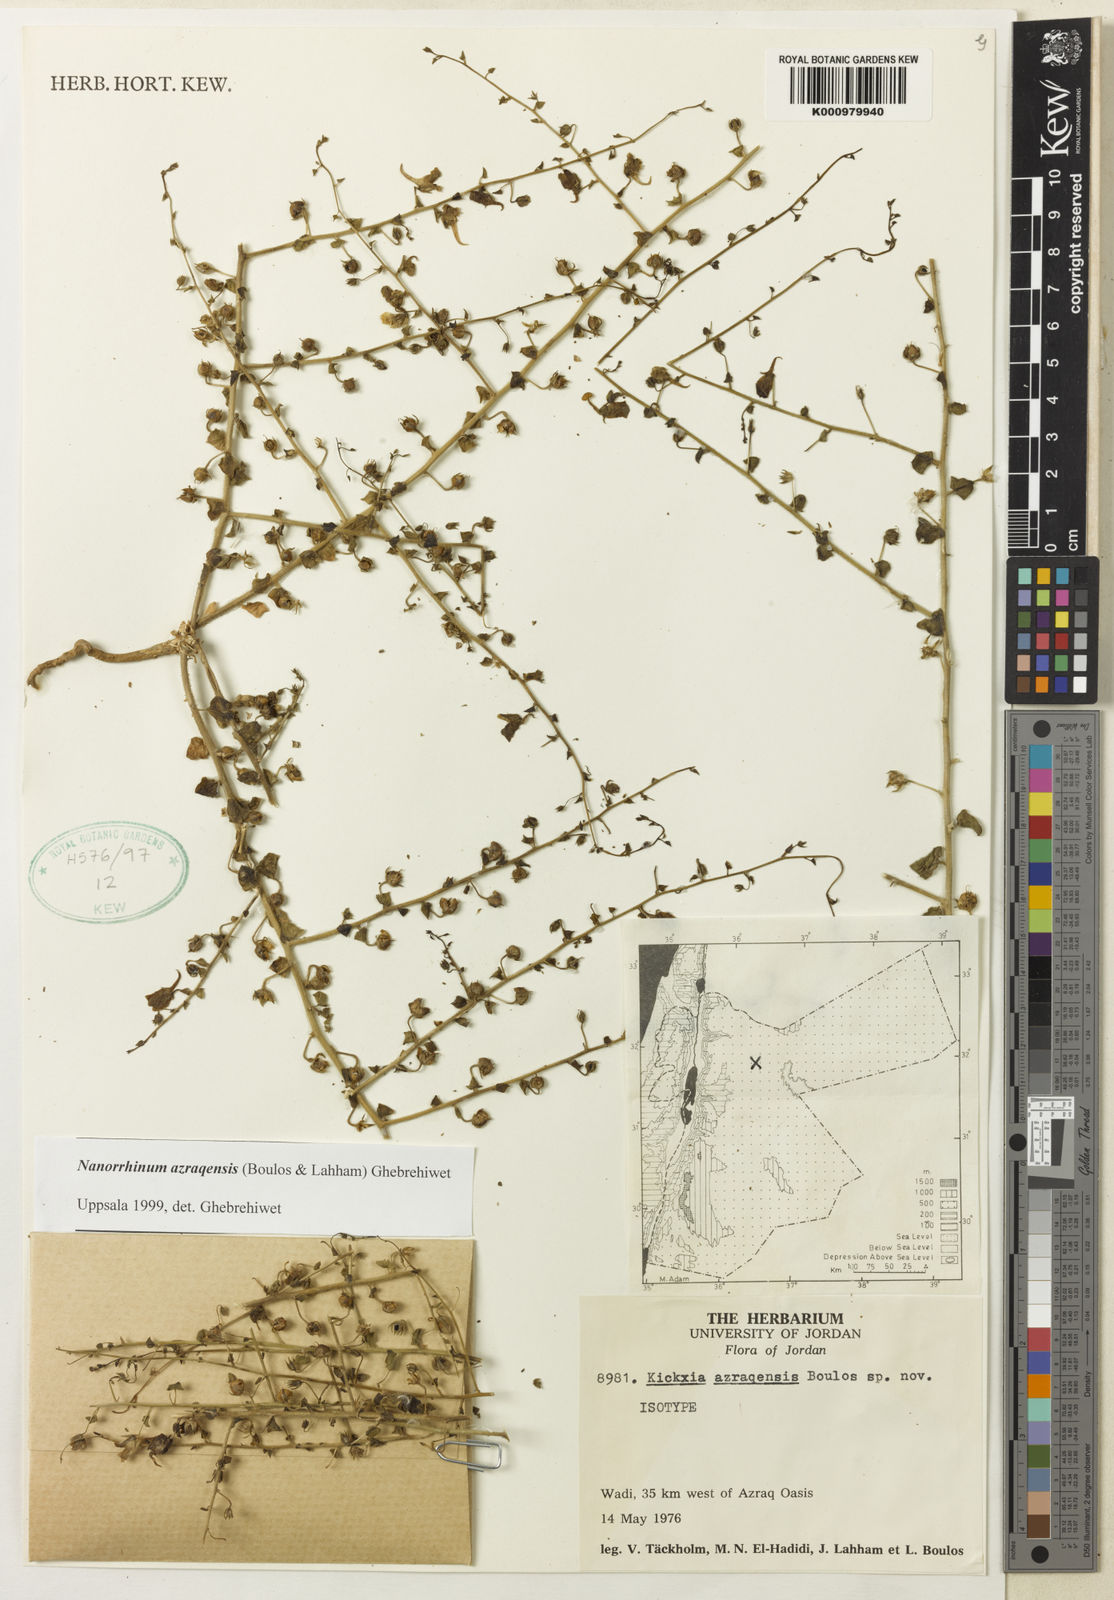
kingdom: Plantae
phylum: Tracheophyta
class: Magnoliopsida
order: Lamiales
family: Plantaginaceae
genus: Linaria
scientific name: Linaria
